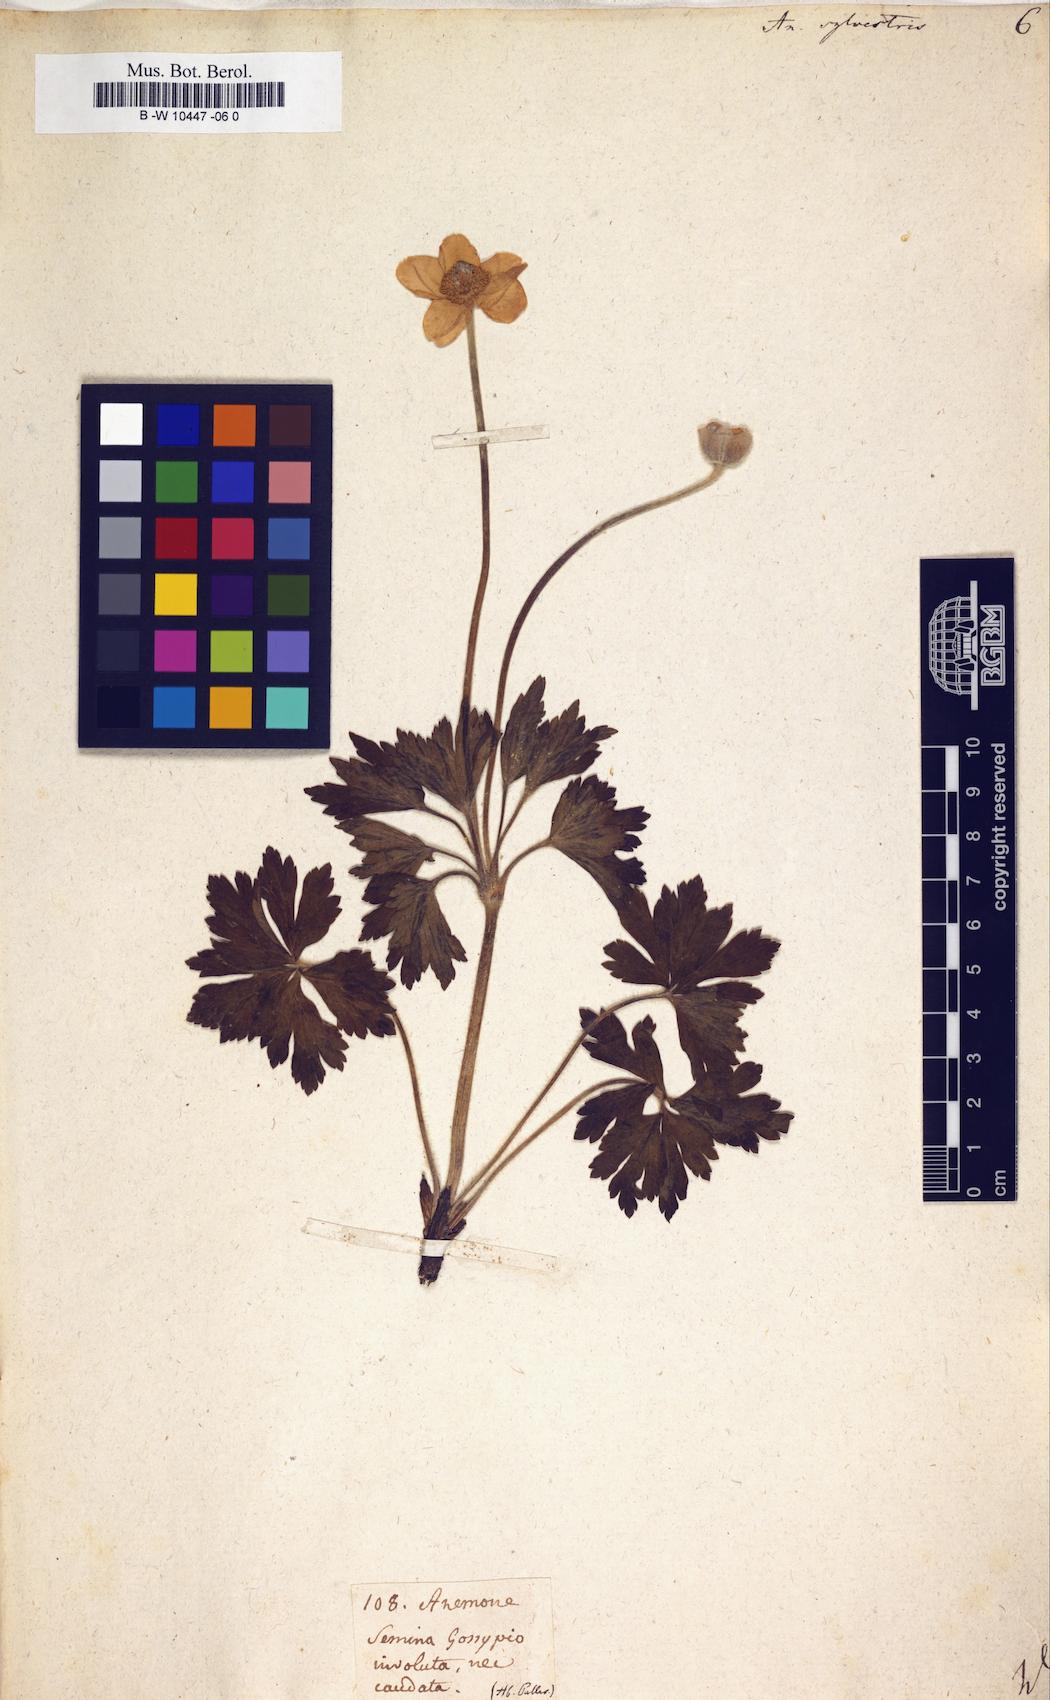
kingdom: Plantae
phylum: Tracheophyta
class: Magnoliopsida
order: Ranunculales
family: Ranunculaceae
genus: Anemone
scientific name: Anemone sylvestris
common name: Snowdrop anemone
